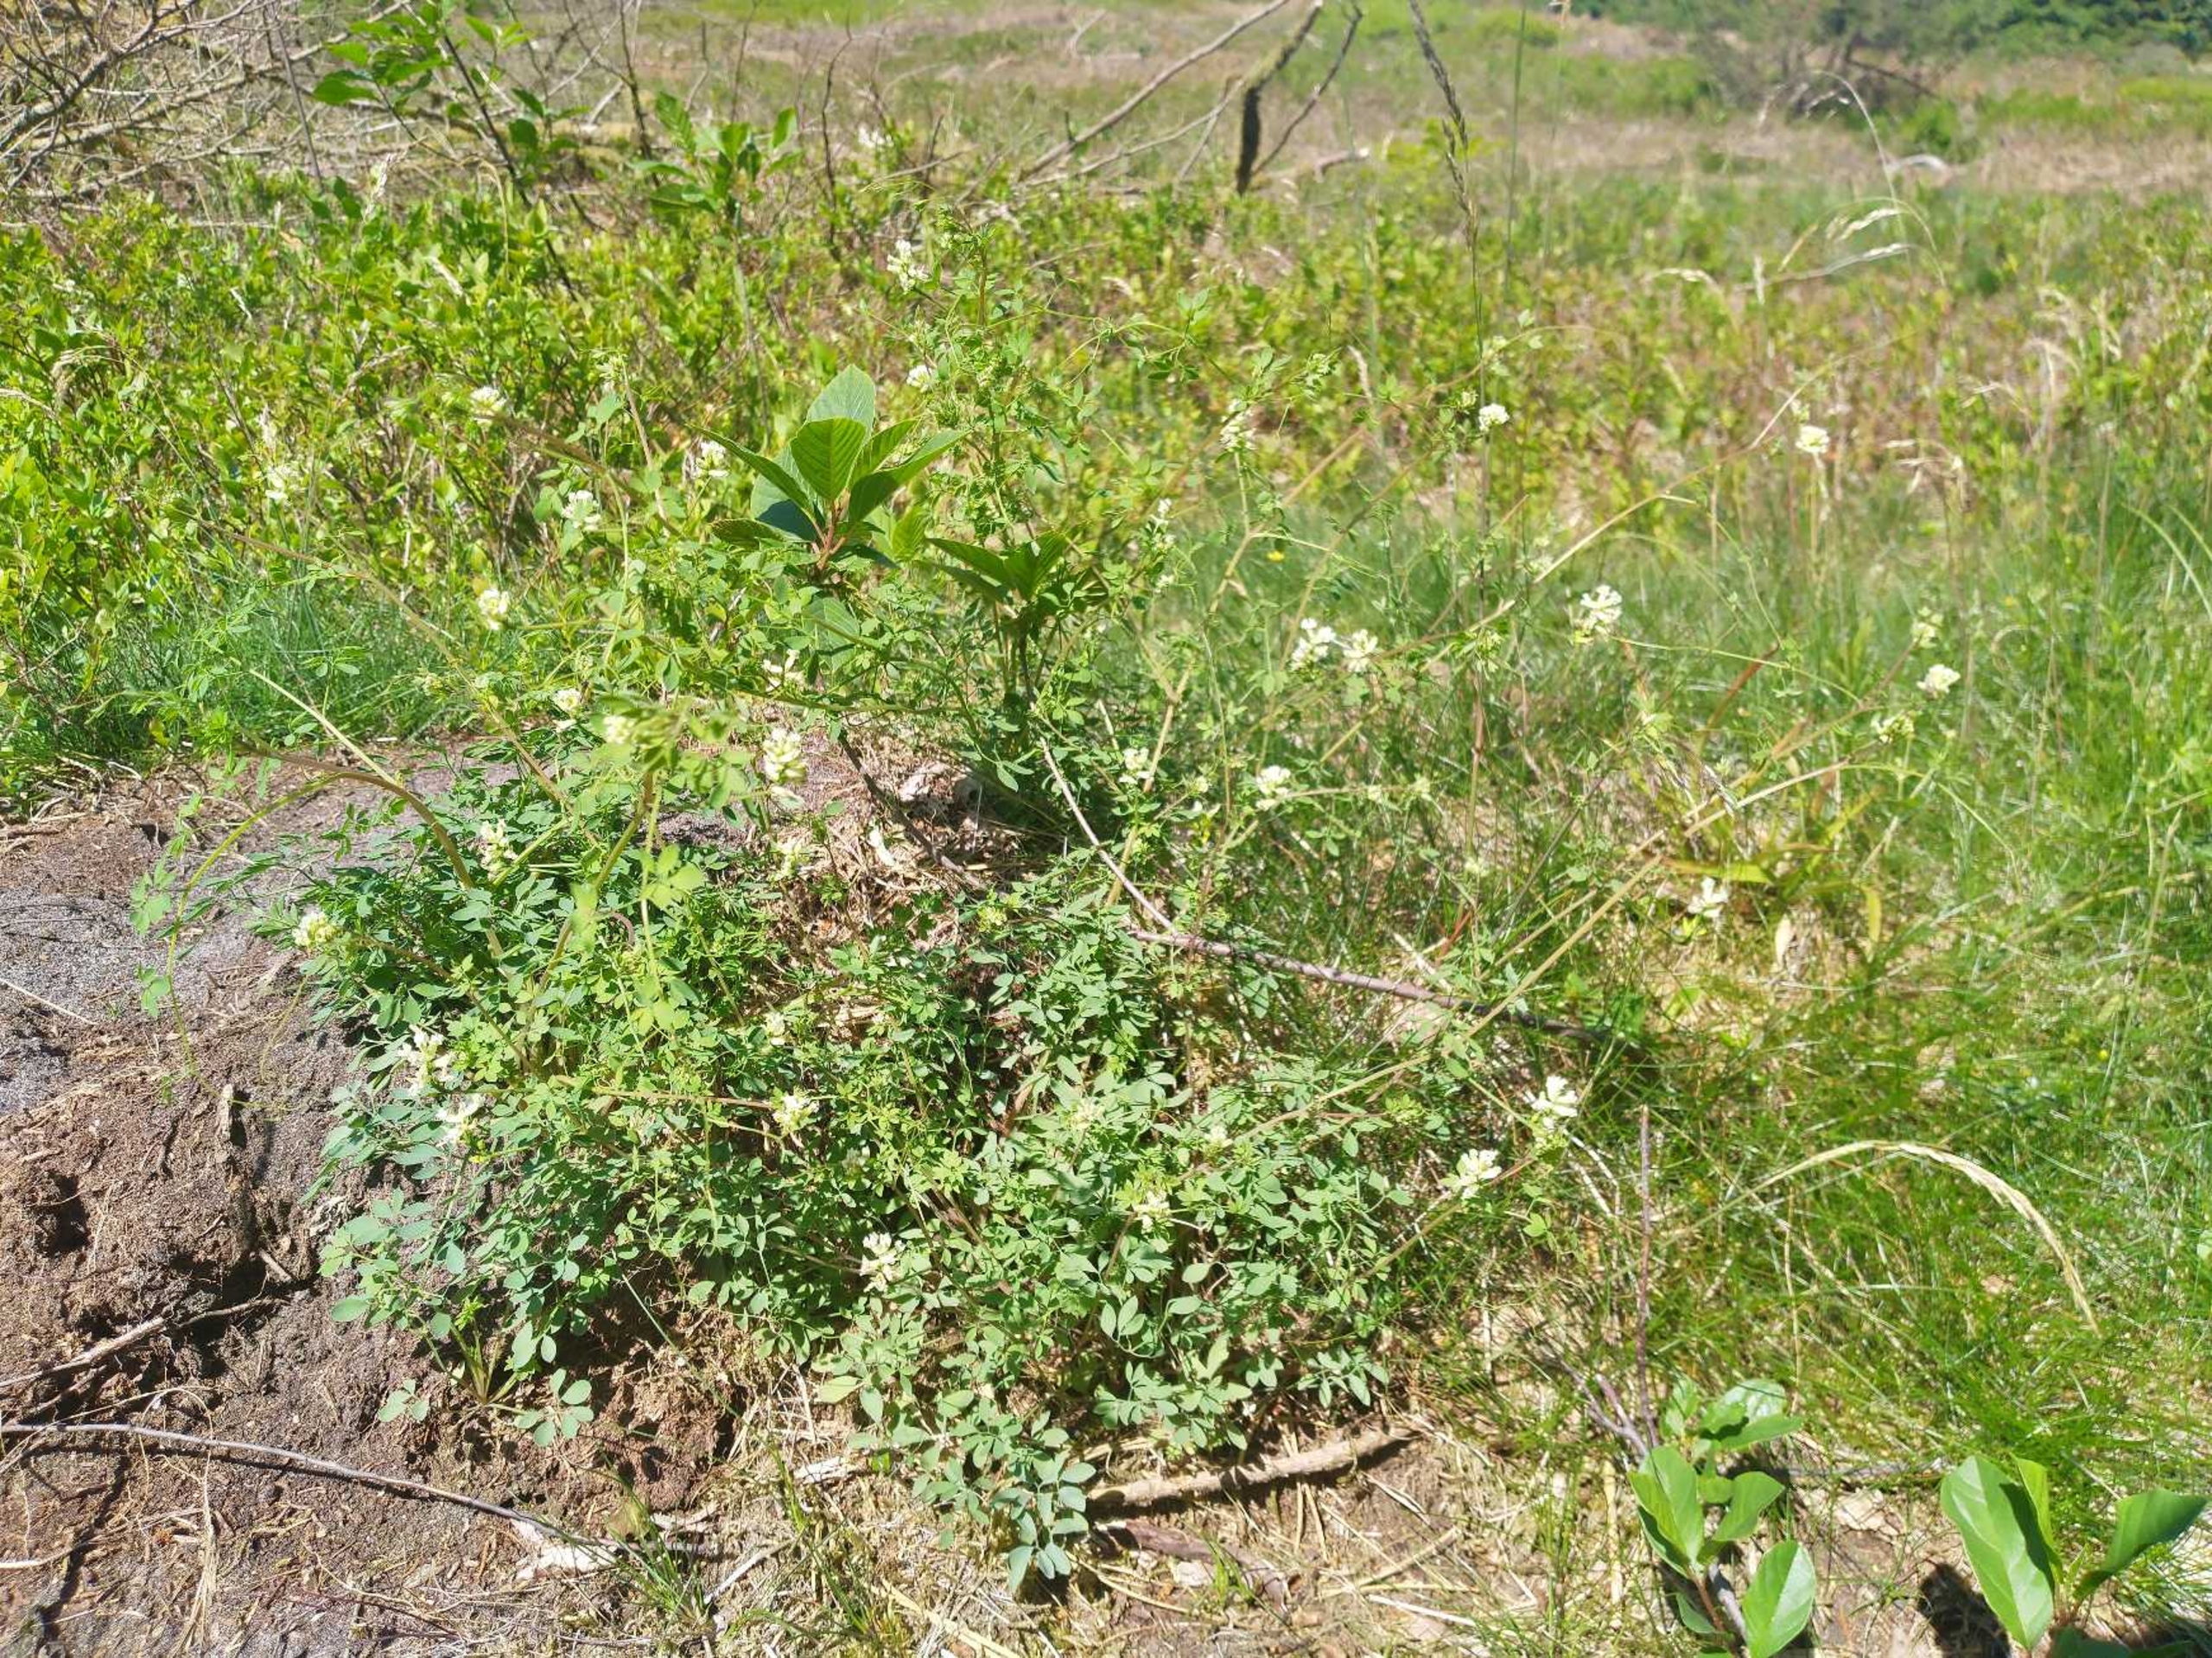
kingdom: Plantae
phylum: Tracheophyta
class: Magnoliopsida
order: Ranunculales
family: Papaveraceae
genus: Ceratocapnos
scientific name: Ceratocapnos claviculata
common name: Klatrende lærkespore
